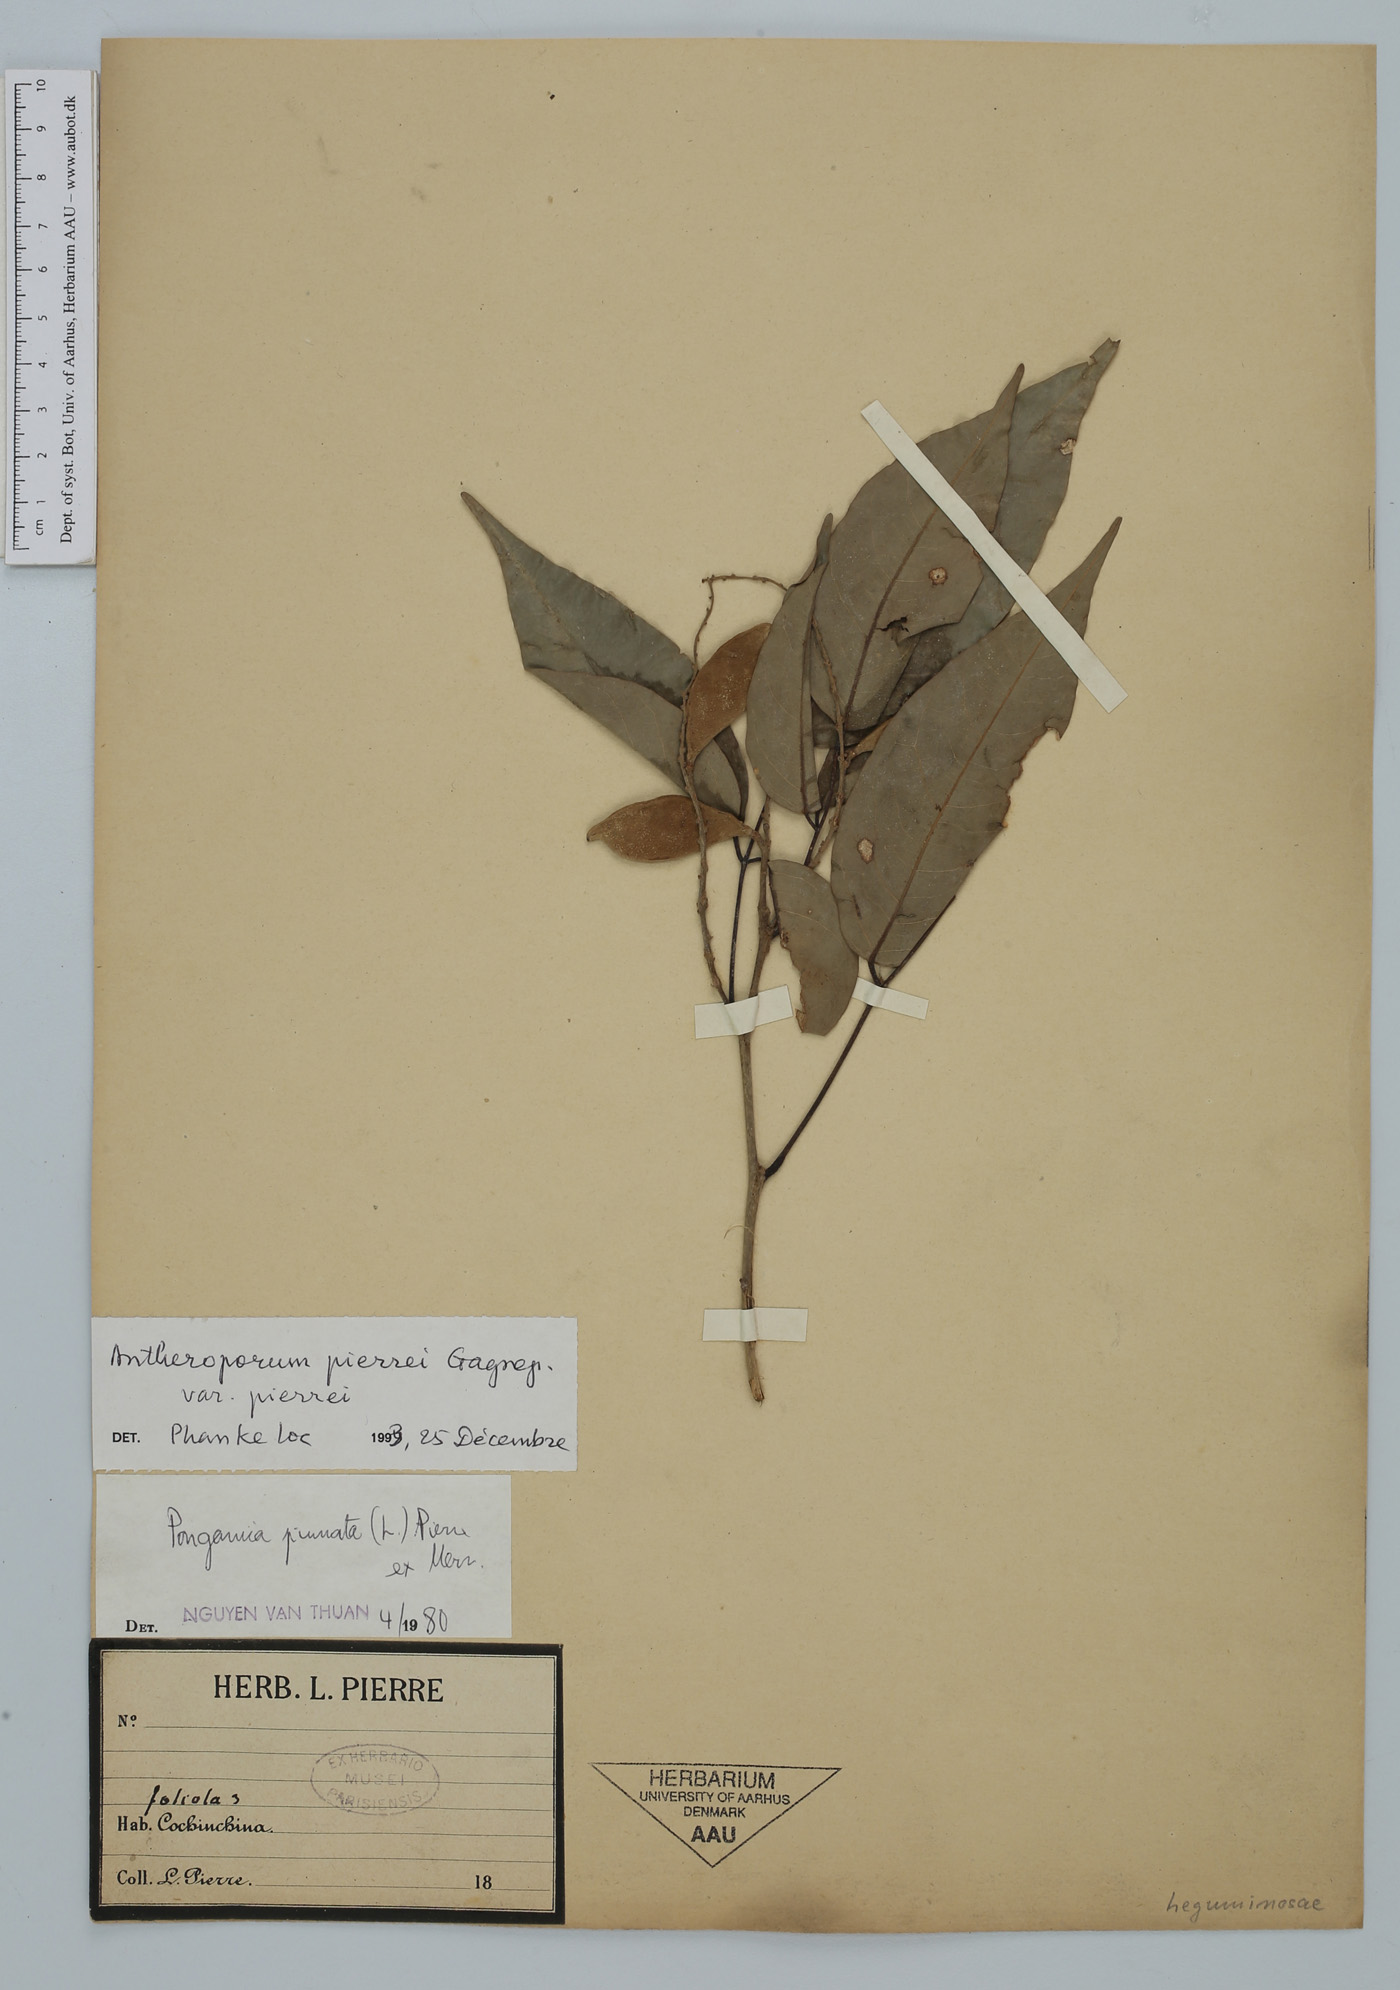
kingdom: Plantae
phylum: Tracheophyta
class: Magnoliopsida
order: Fabales
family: Fabaceae
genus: Antheroporum
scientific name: Antheroporum pierrei
